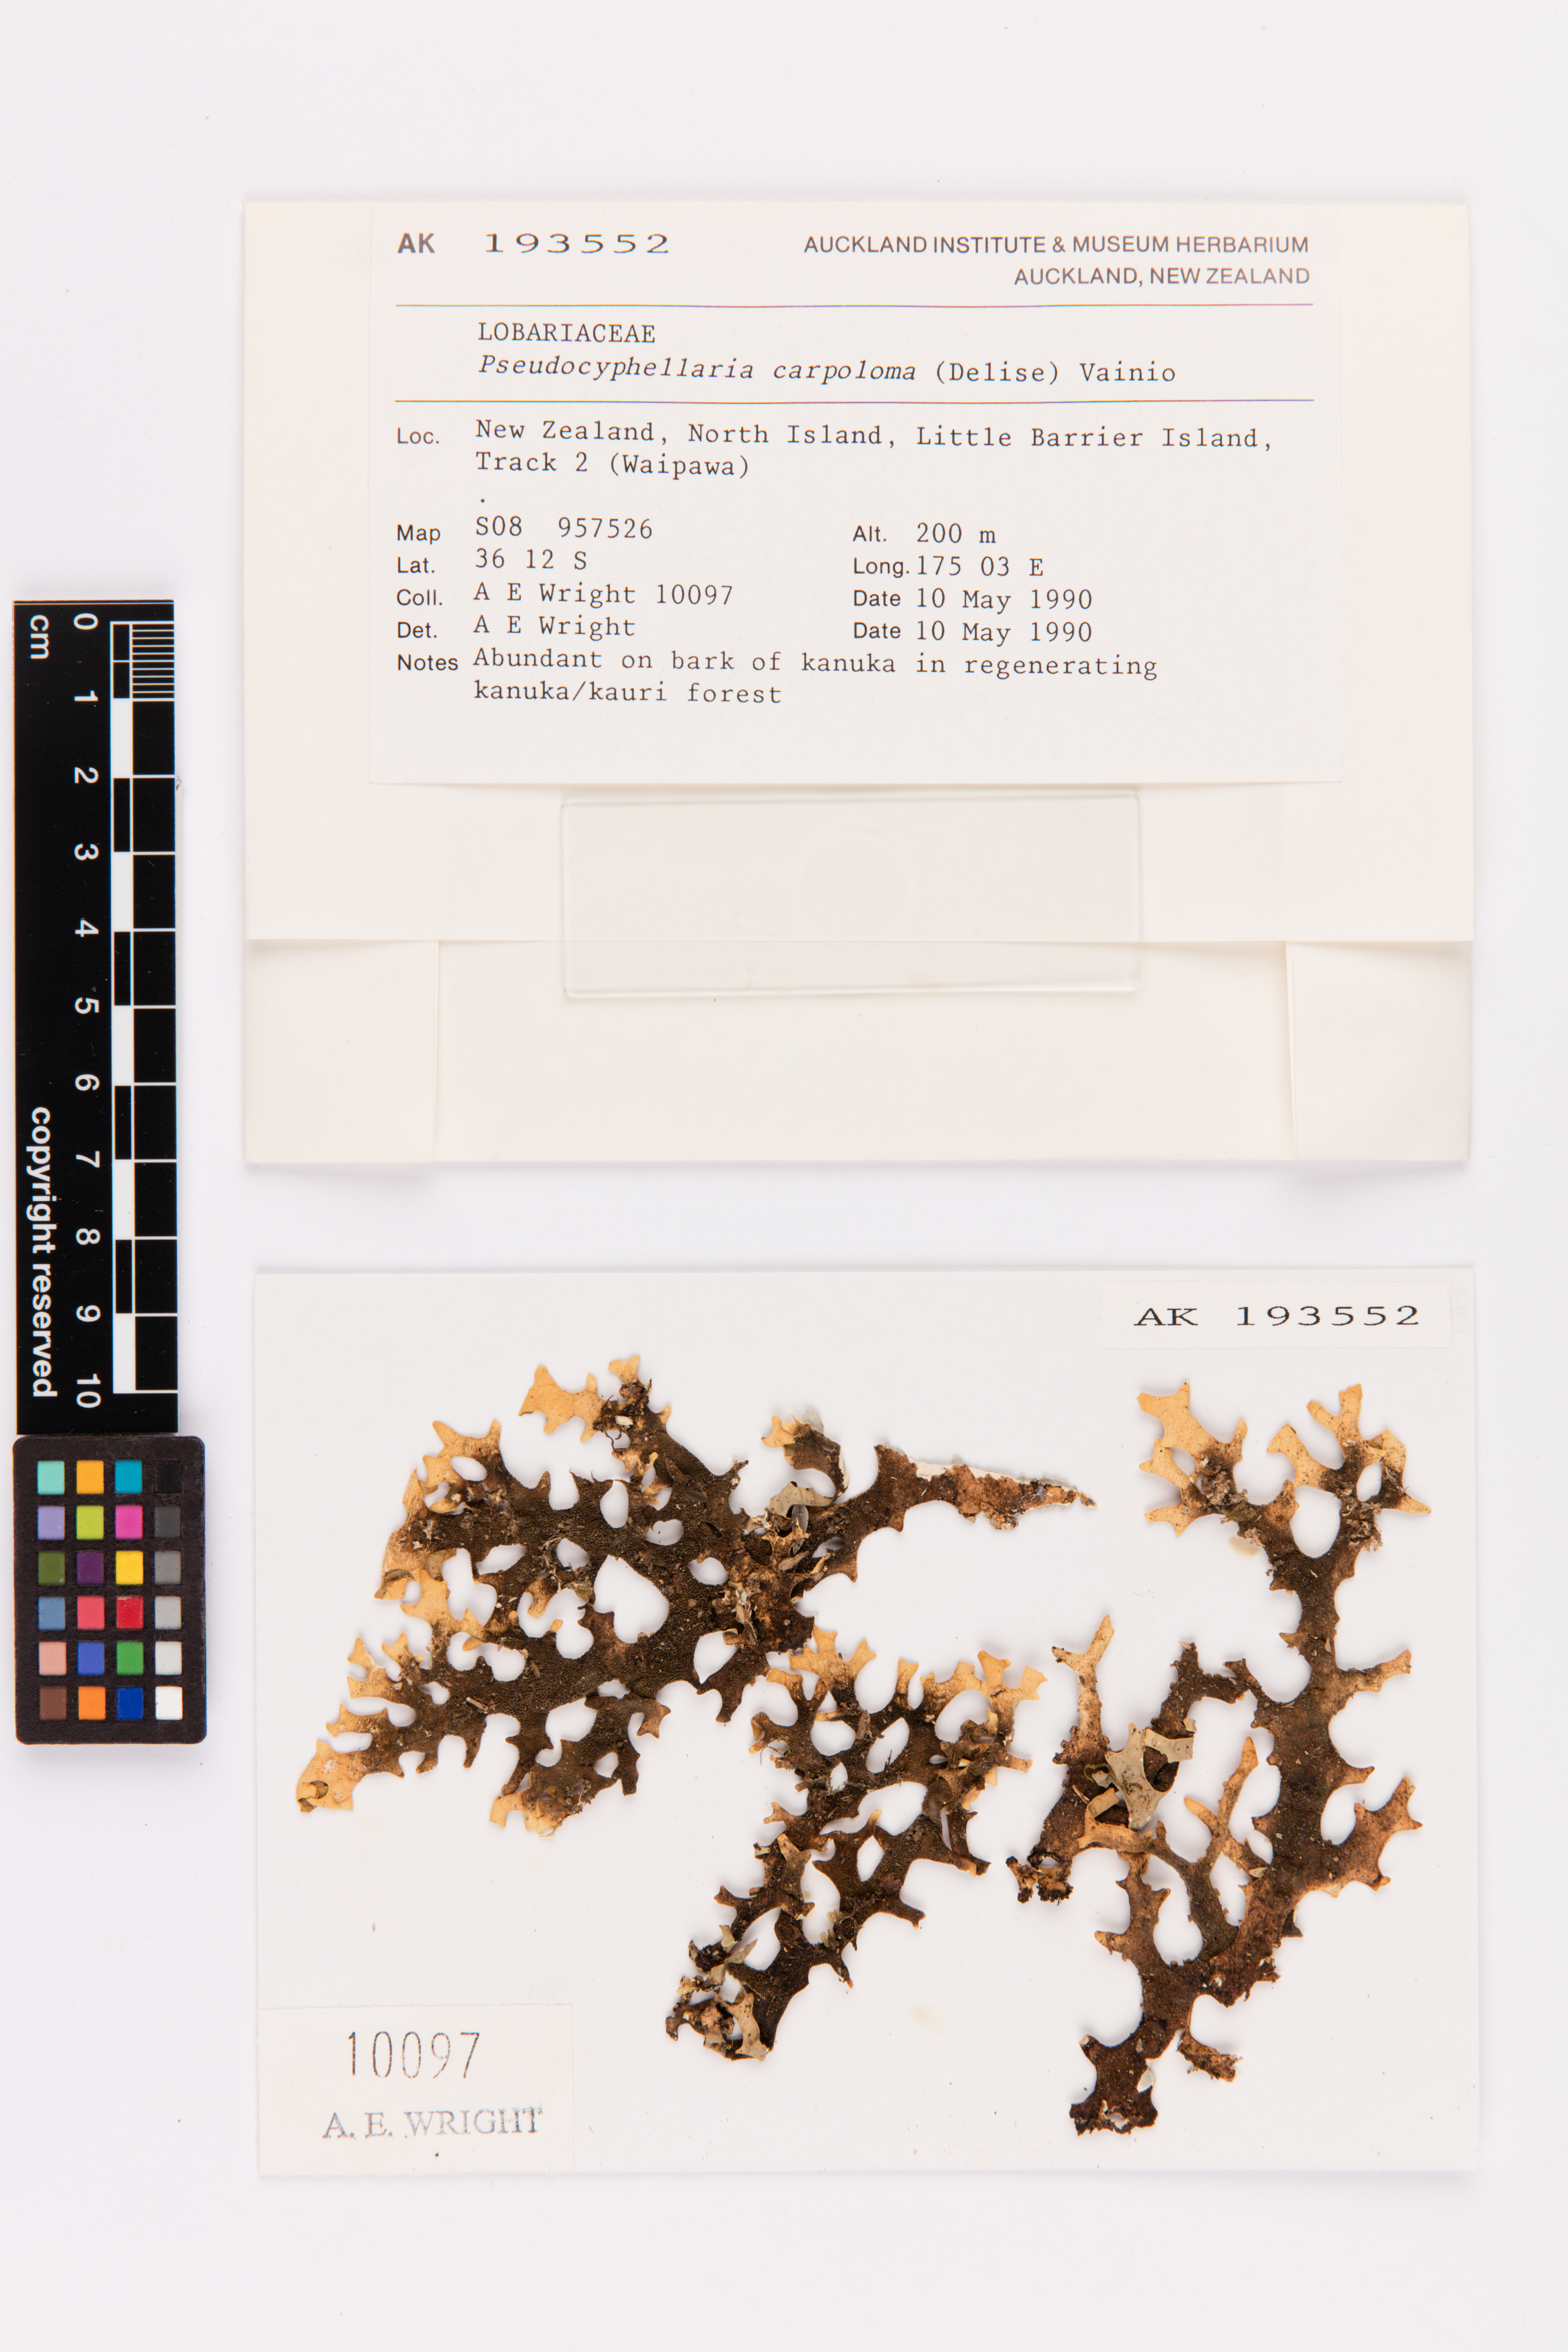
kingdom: Fungi
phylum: Ascomycota
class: Lecanoromycetes
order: Peltigerales
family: Lobariaceae
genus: Pseudocyphellaria
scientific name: Pseudocyphellaria carpoloma
